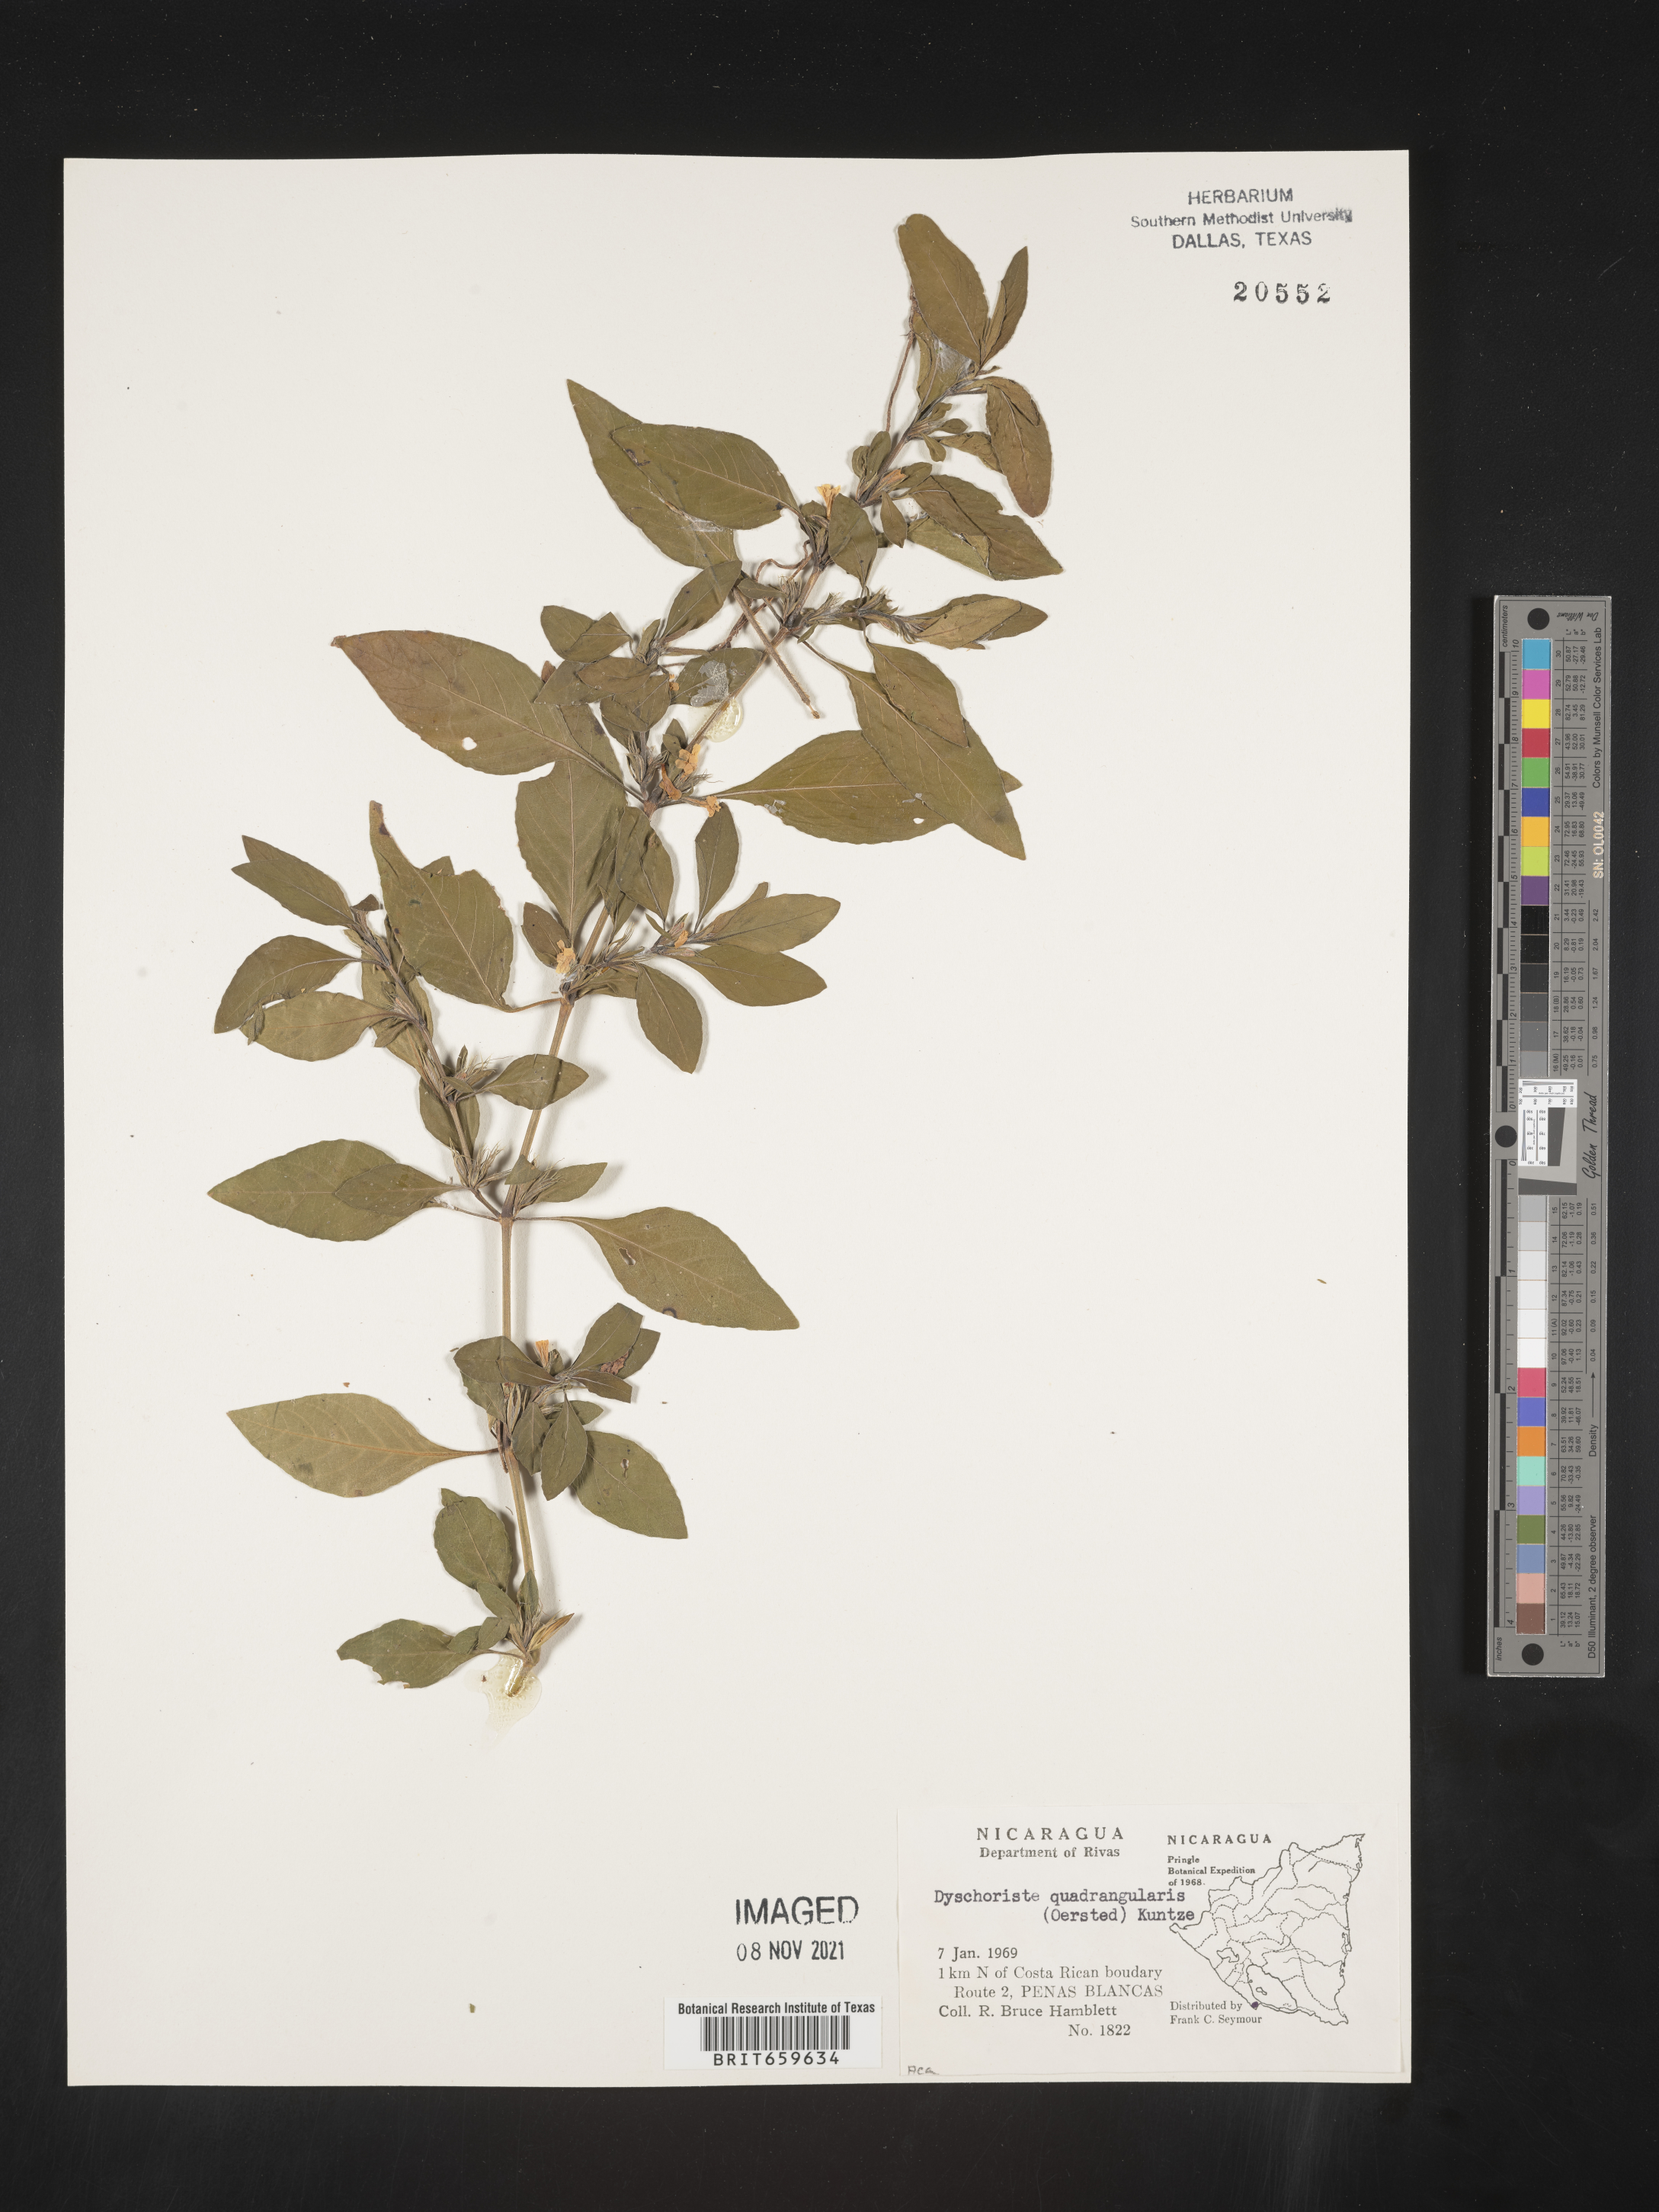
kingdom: Plantae
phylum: Tracheophyta
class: Magnoliopsida
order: Lamiales
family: Acanthaceae
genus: Dyschoriste
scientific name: Dyschoriste
